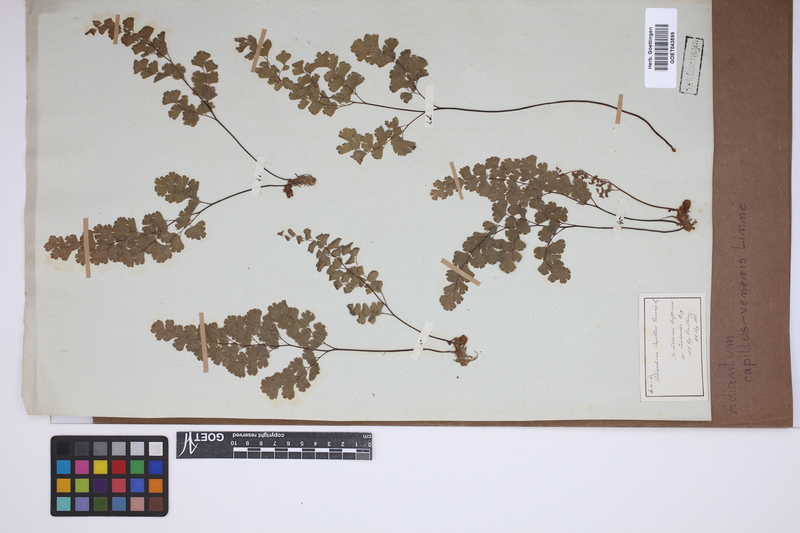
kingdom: Plantae
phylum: Tracheophyta
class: Polypodiopsida
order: Polypodiales
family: Pteridaceae
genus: Adiantum
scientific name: Adiantum capillus-veneris
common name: Maidenhair fern
